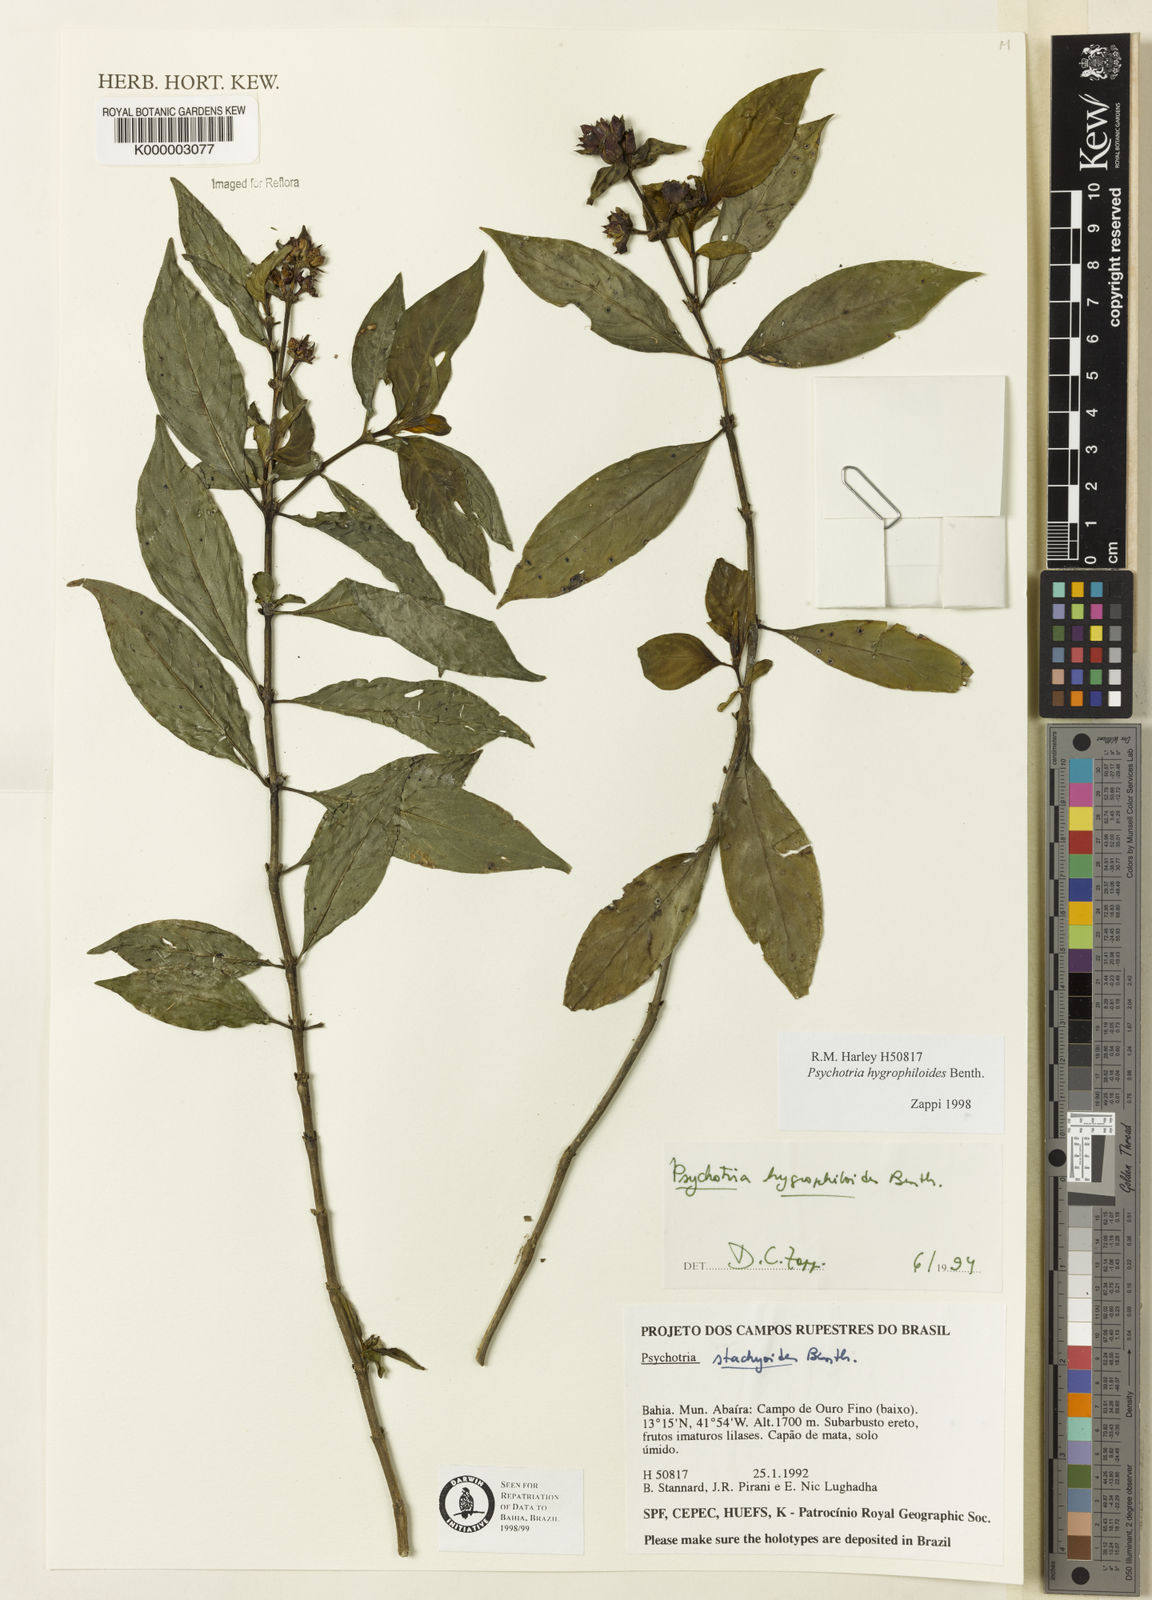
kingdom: Plantae
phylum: Tracheophyta
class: Magnoliopsida
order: Gentianales
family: Rubiaceae
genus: Psychotria
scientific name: Psychotria stachyoides
